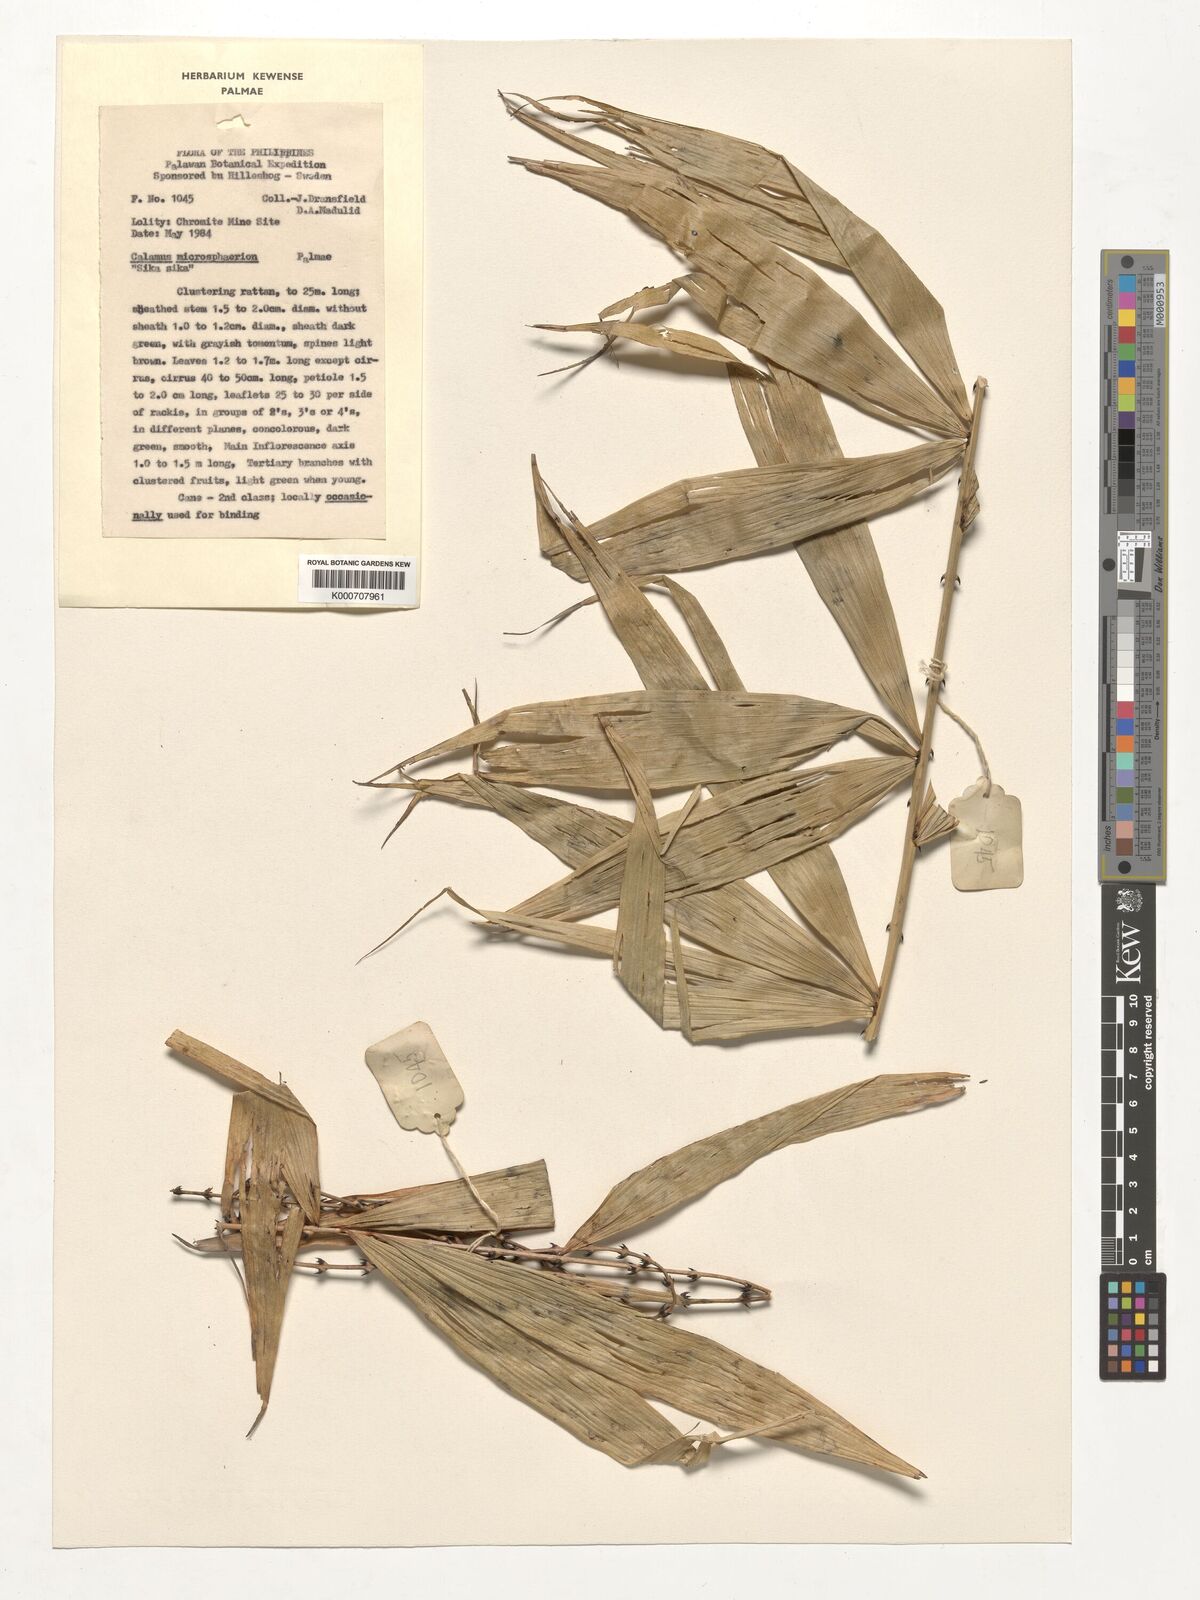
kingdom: Plantae
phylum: Tracheophyta
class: Liliopsida
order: Arecales
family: Arecaceae
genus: Calamus
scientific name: Calamus microsphaerion
